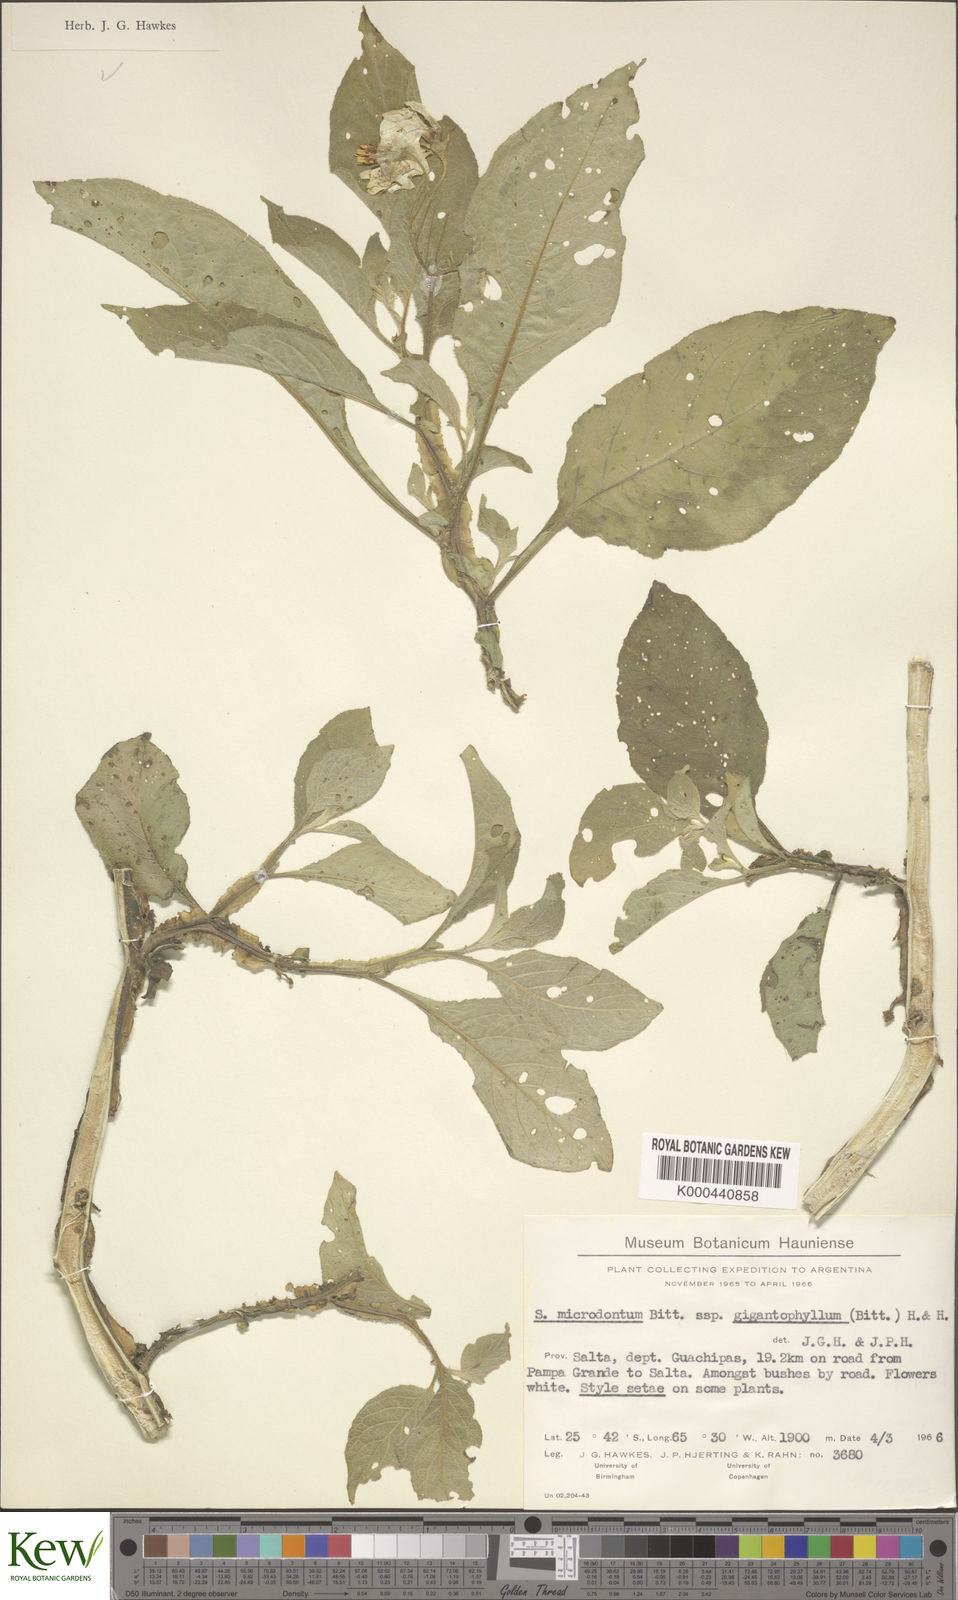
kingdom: Plantae
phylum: Tracheophyta
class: Magnoliopsida
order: Solanales
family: Solanaceae
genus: Solanum
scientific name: Solanum microdontum
